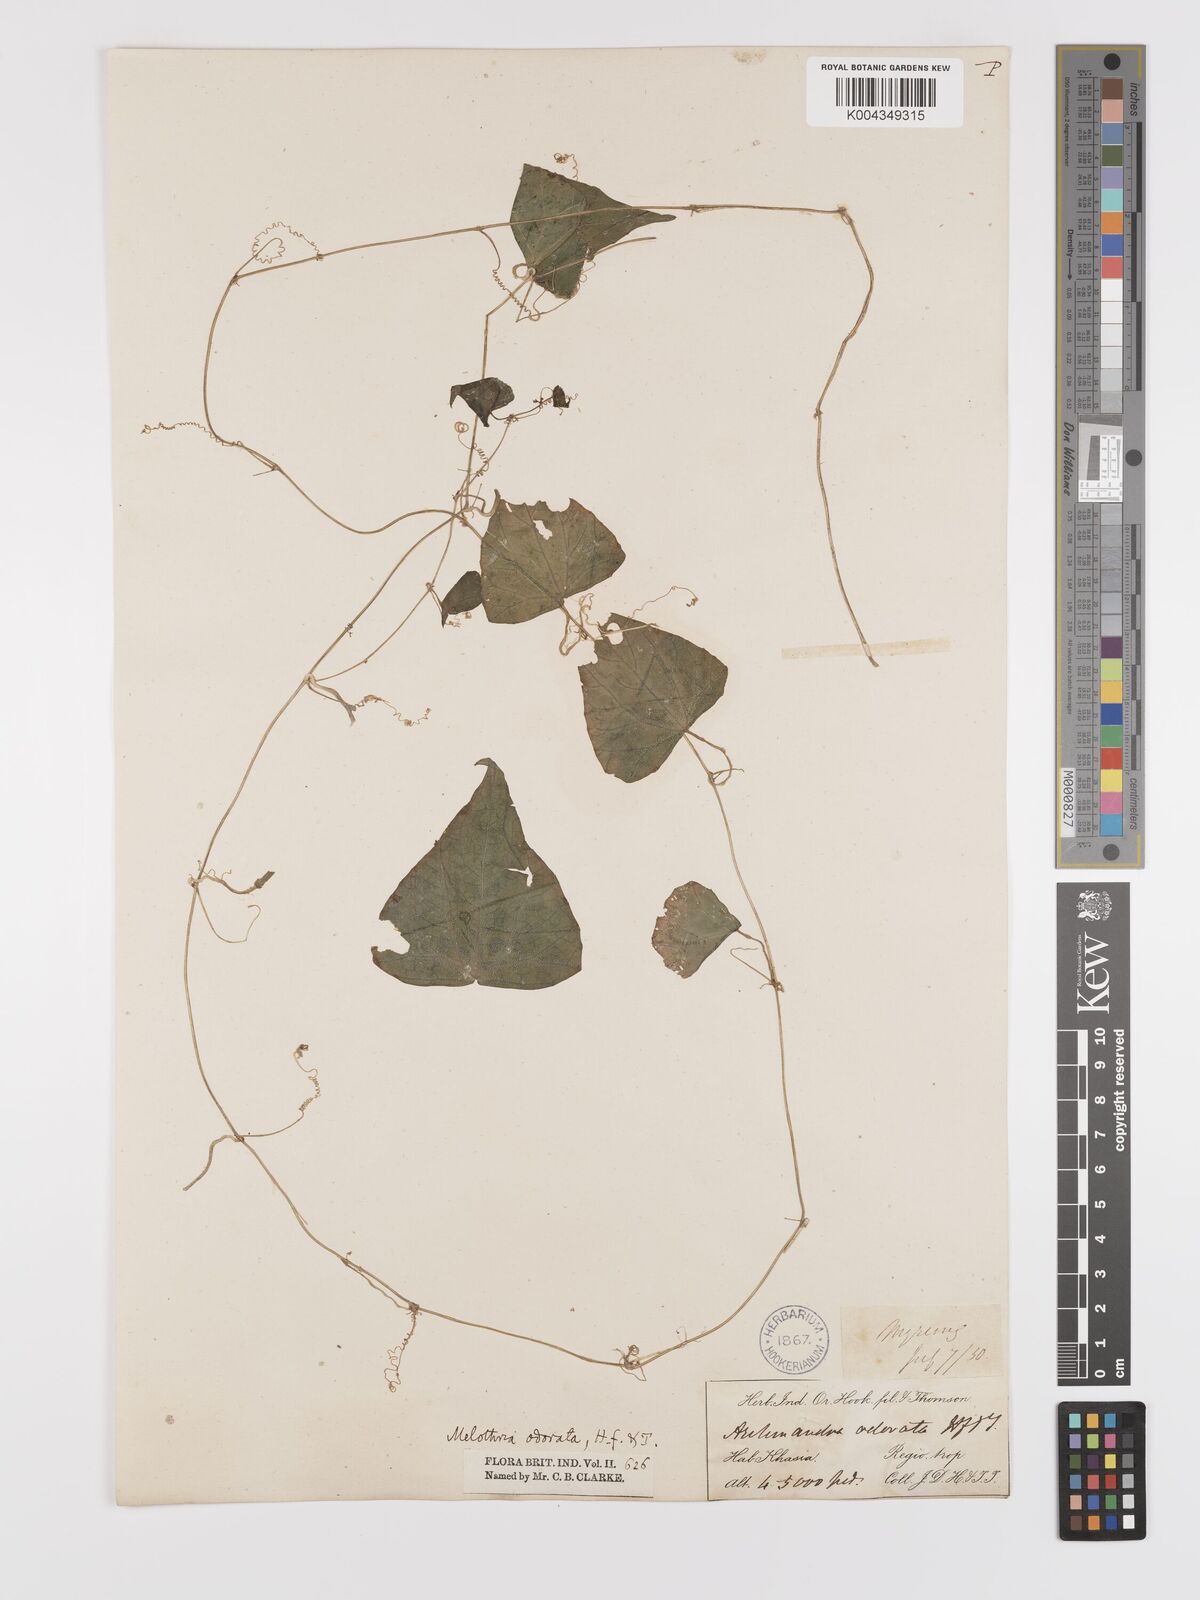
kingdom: Plantae
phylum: Tracheophyta
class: Magnoliopsida
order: Cucurbitales
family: Cucurbitaceae
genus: Zehneria
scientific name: Zehneria odorata
